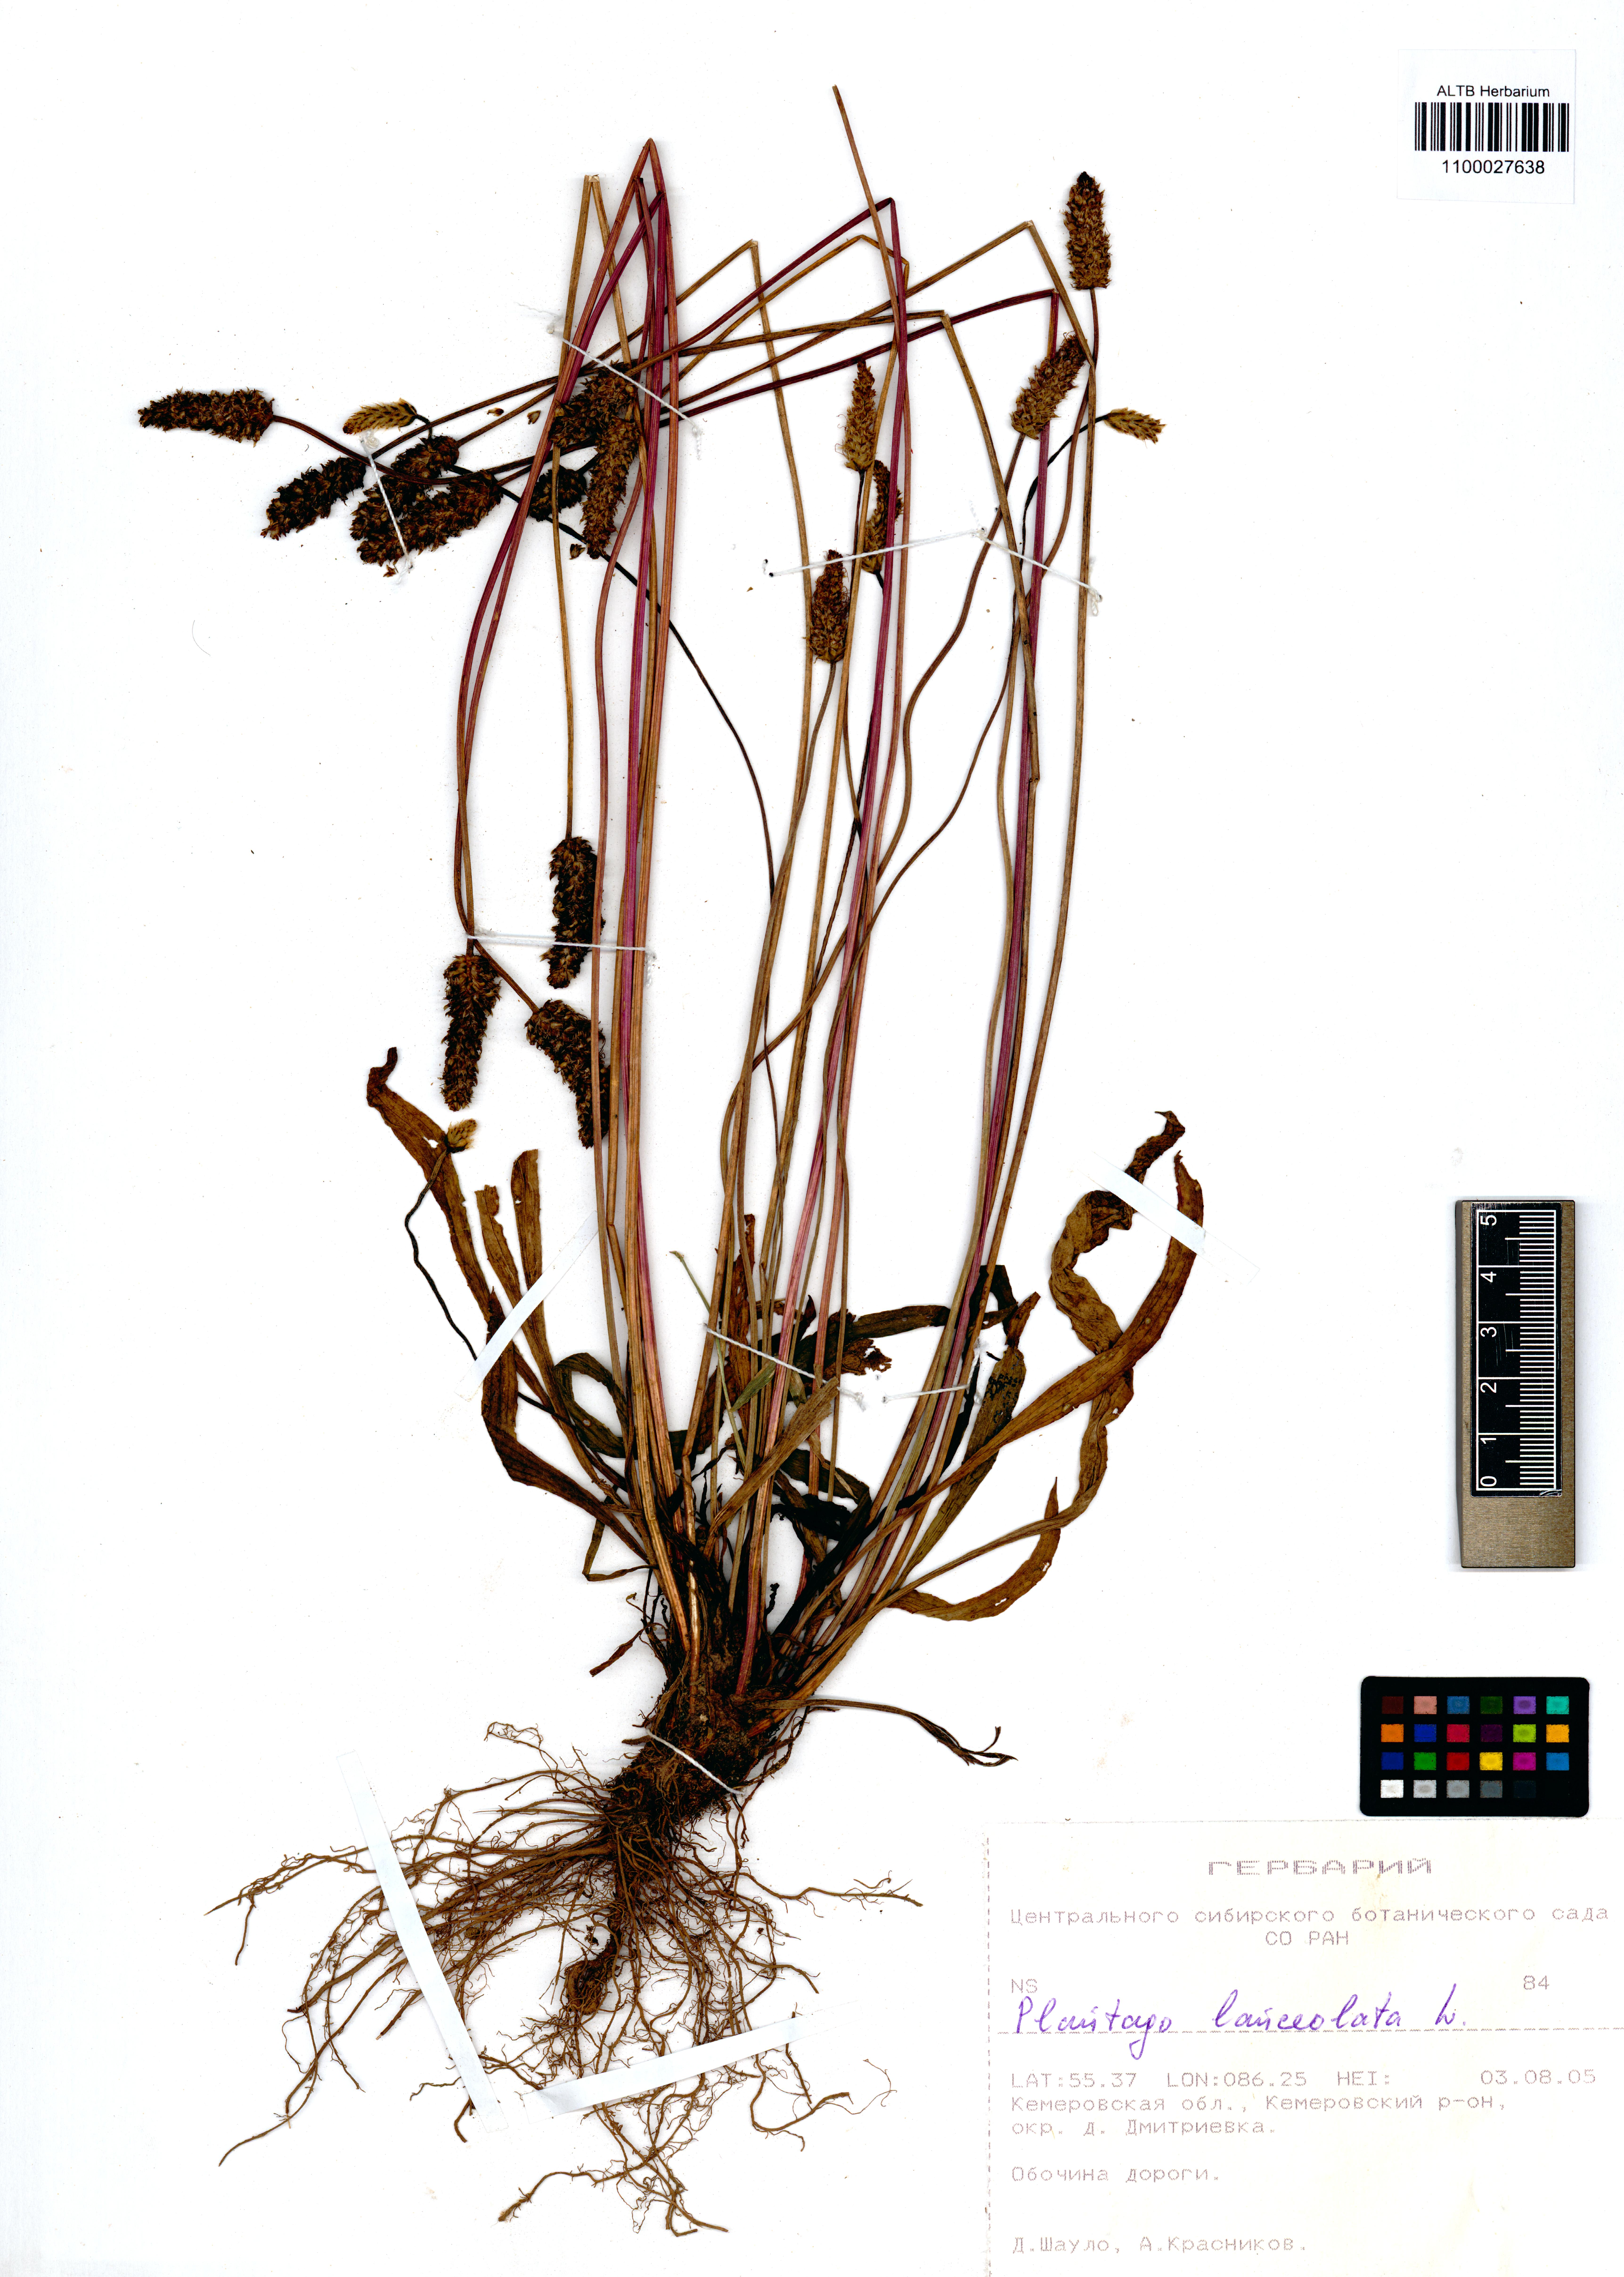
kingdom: Plantae
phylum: Tracheophyta
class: Magnoliopsida
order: Lamiales
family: Plantaginaceae
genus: Plantago
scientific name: Plantago lanceolata
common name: Ribwort plantain
